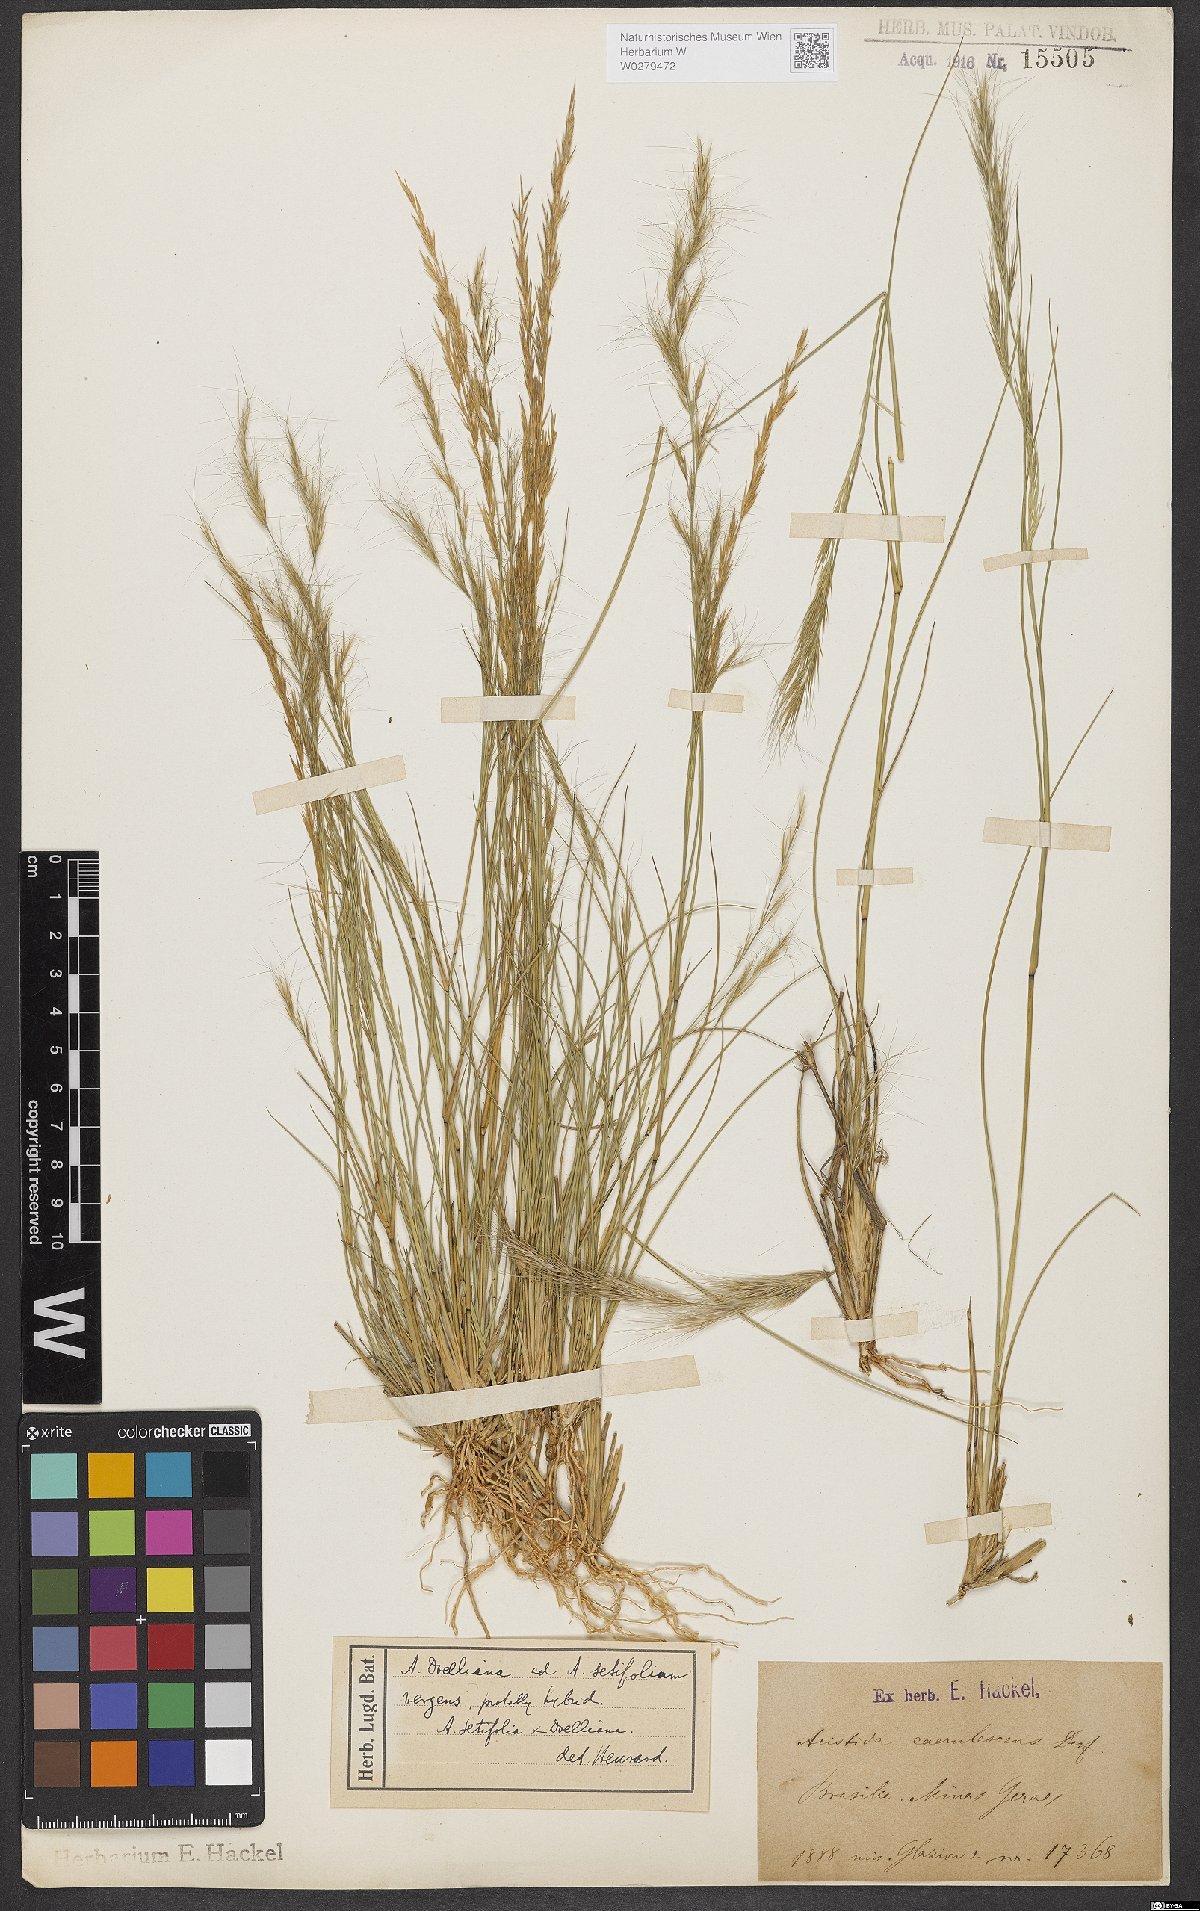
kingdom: Plantae
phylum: Tracheophyta
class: Liliopsida
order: Poales
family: Poaceae
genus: Aristida
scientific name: Aristida setifolia
